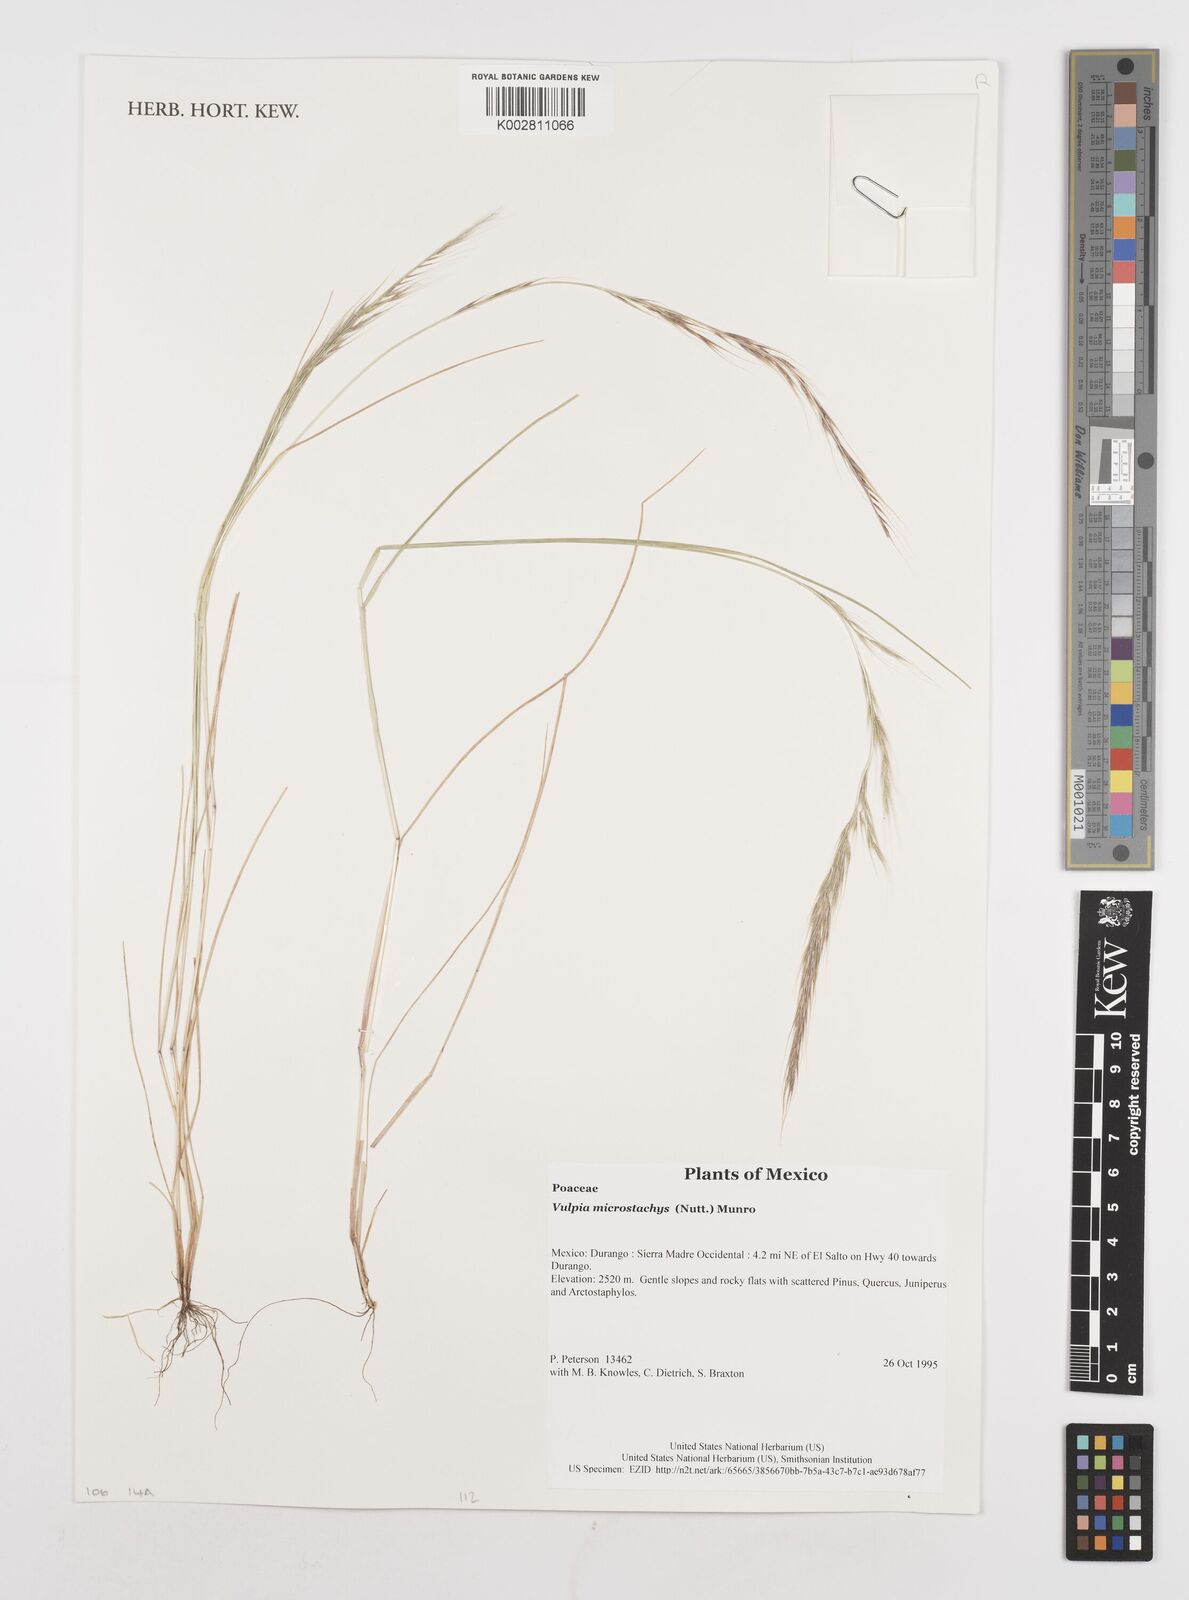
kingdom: Plantae
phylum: Tracheophyta
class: Liliopsida
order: Poales
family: Poaceae
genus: Festuca
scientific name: Festuca microstachys
